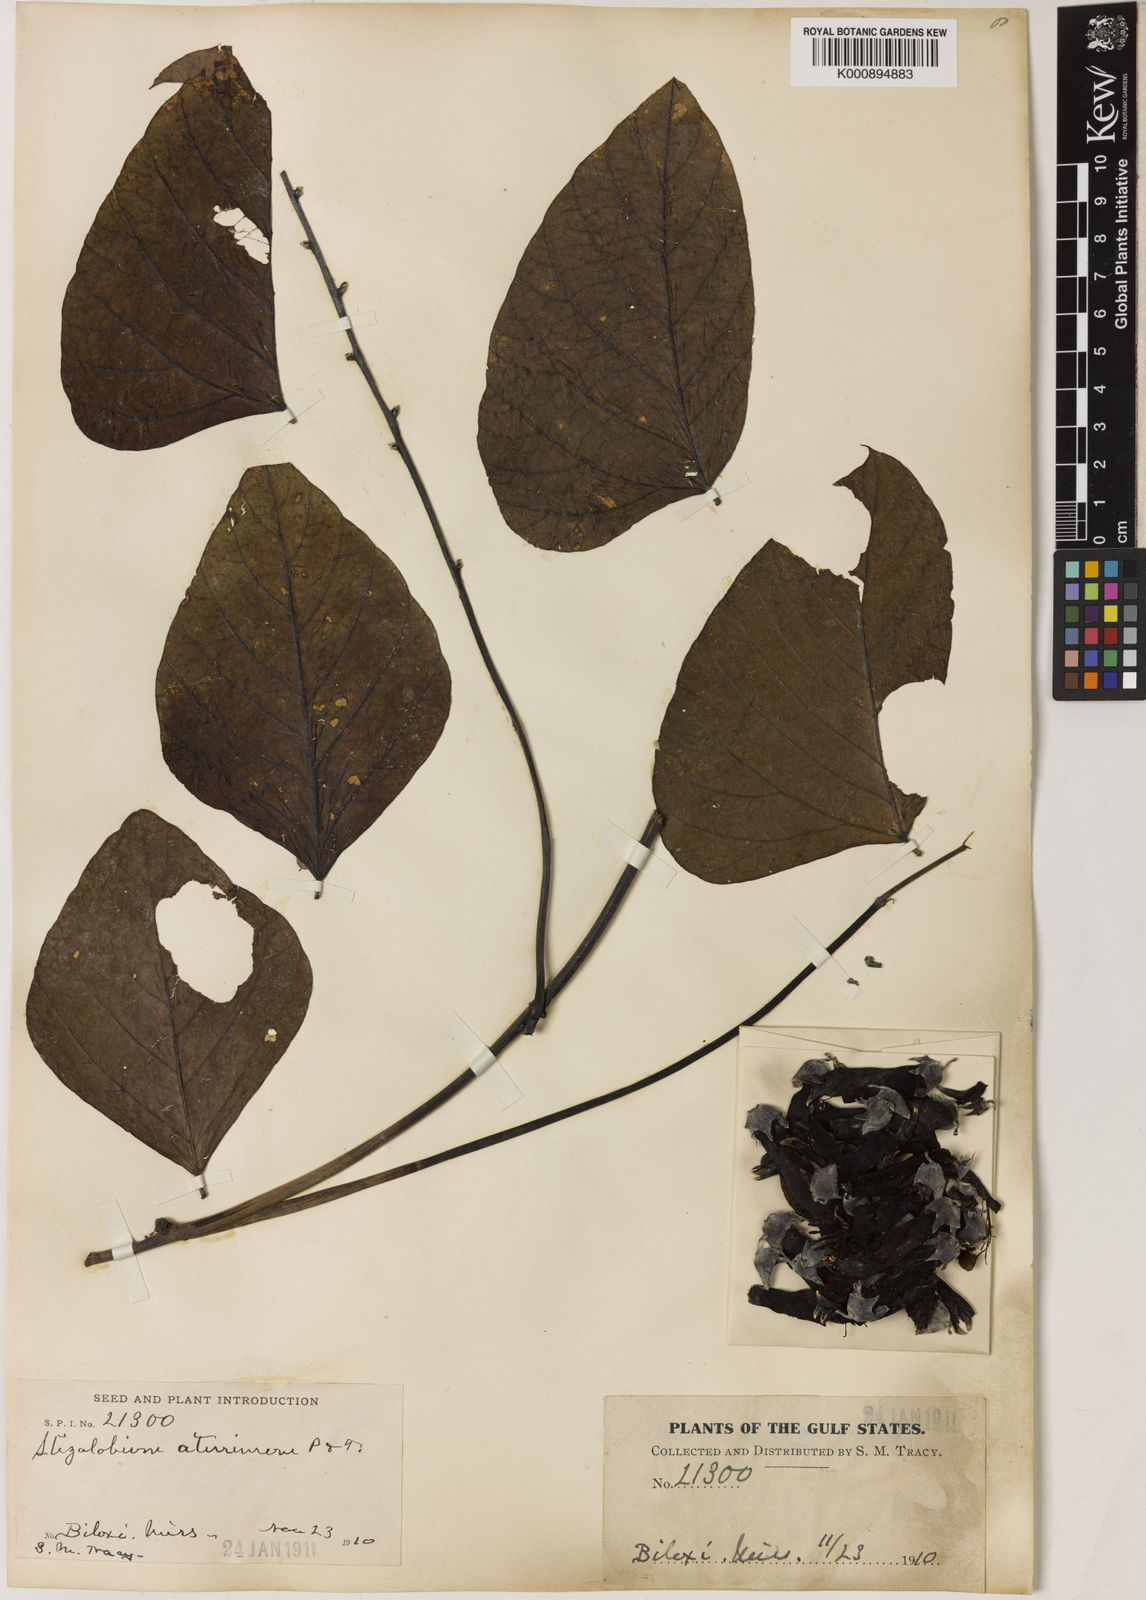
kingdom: Plantae
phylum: Tracheophyta
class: Magnoliopsida
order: Fabales
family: Fabaceae
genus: Mucuna
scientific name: Mucuna pruriens
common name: Cow-itch
